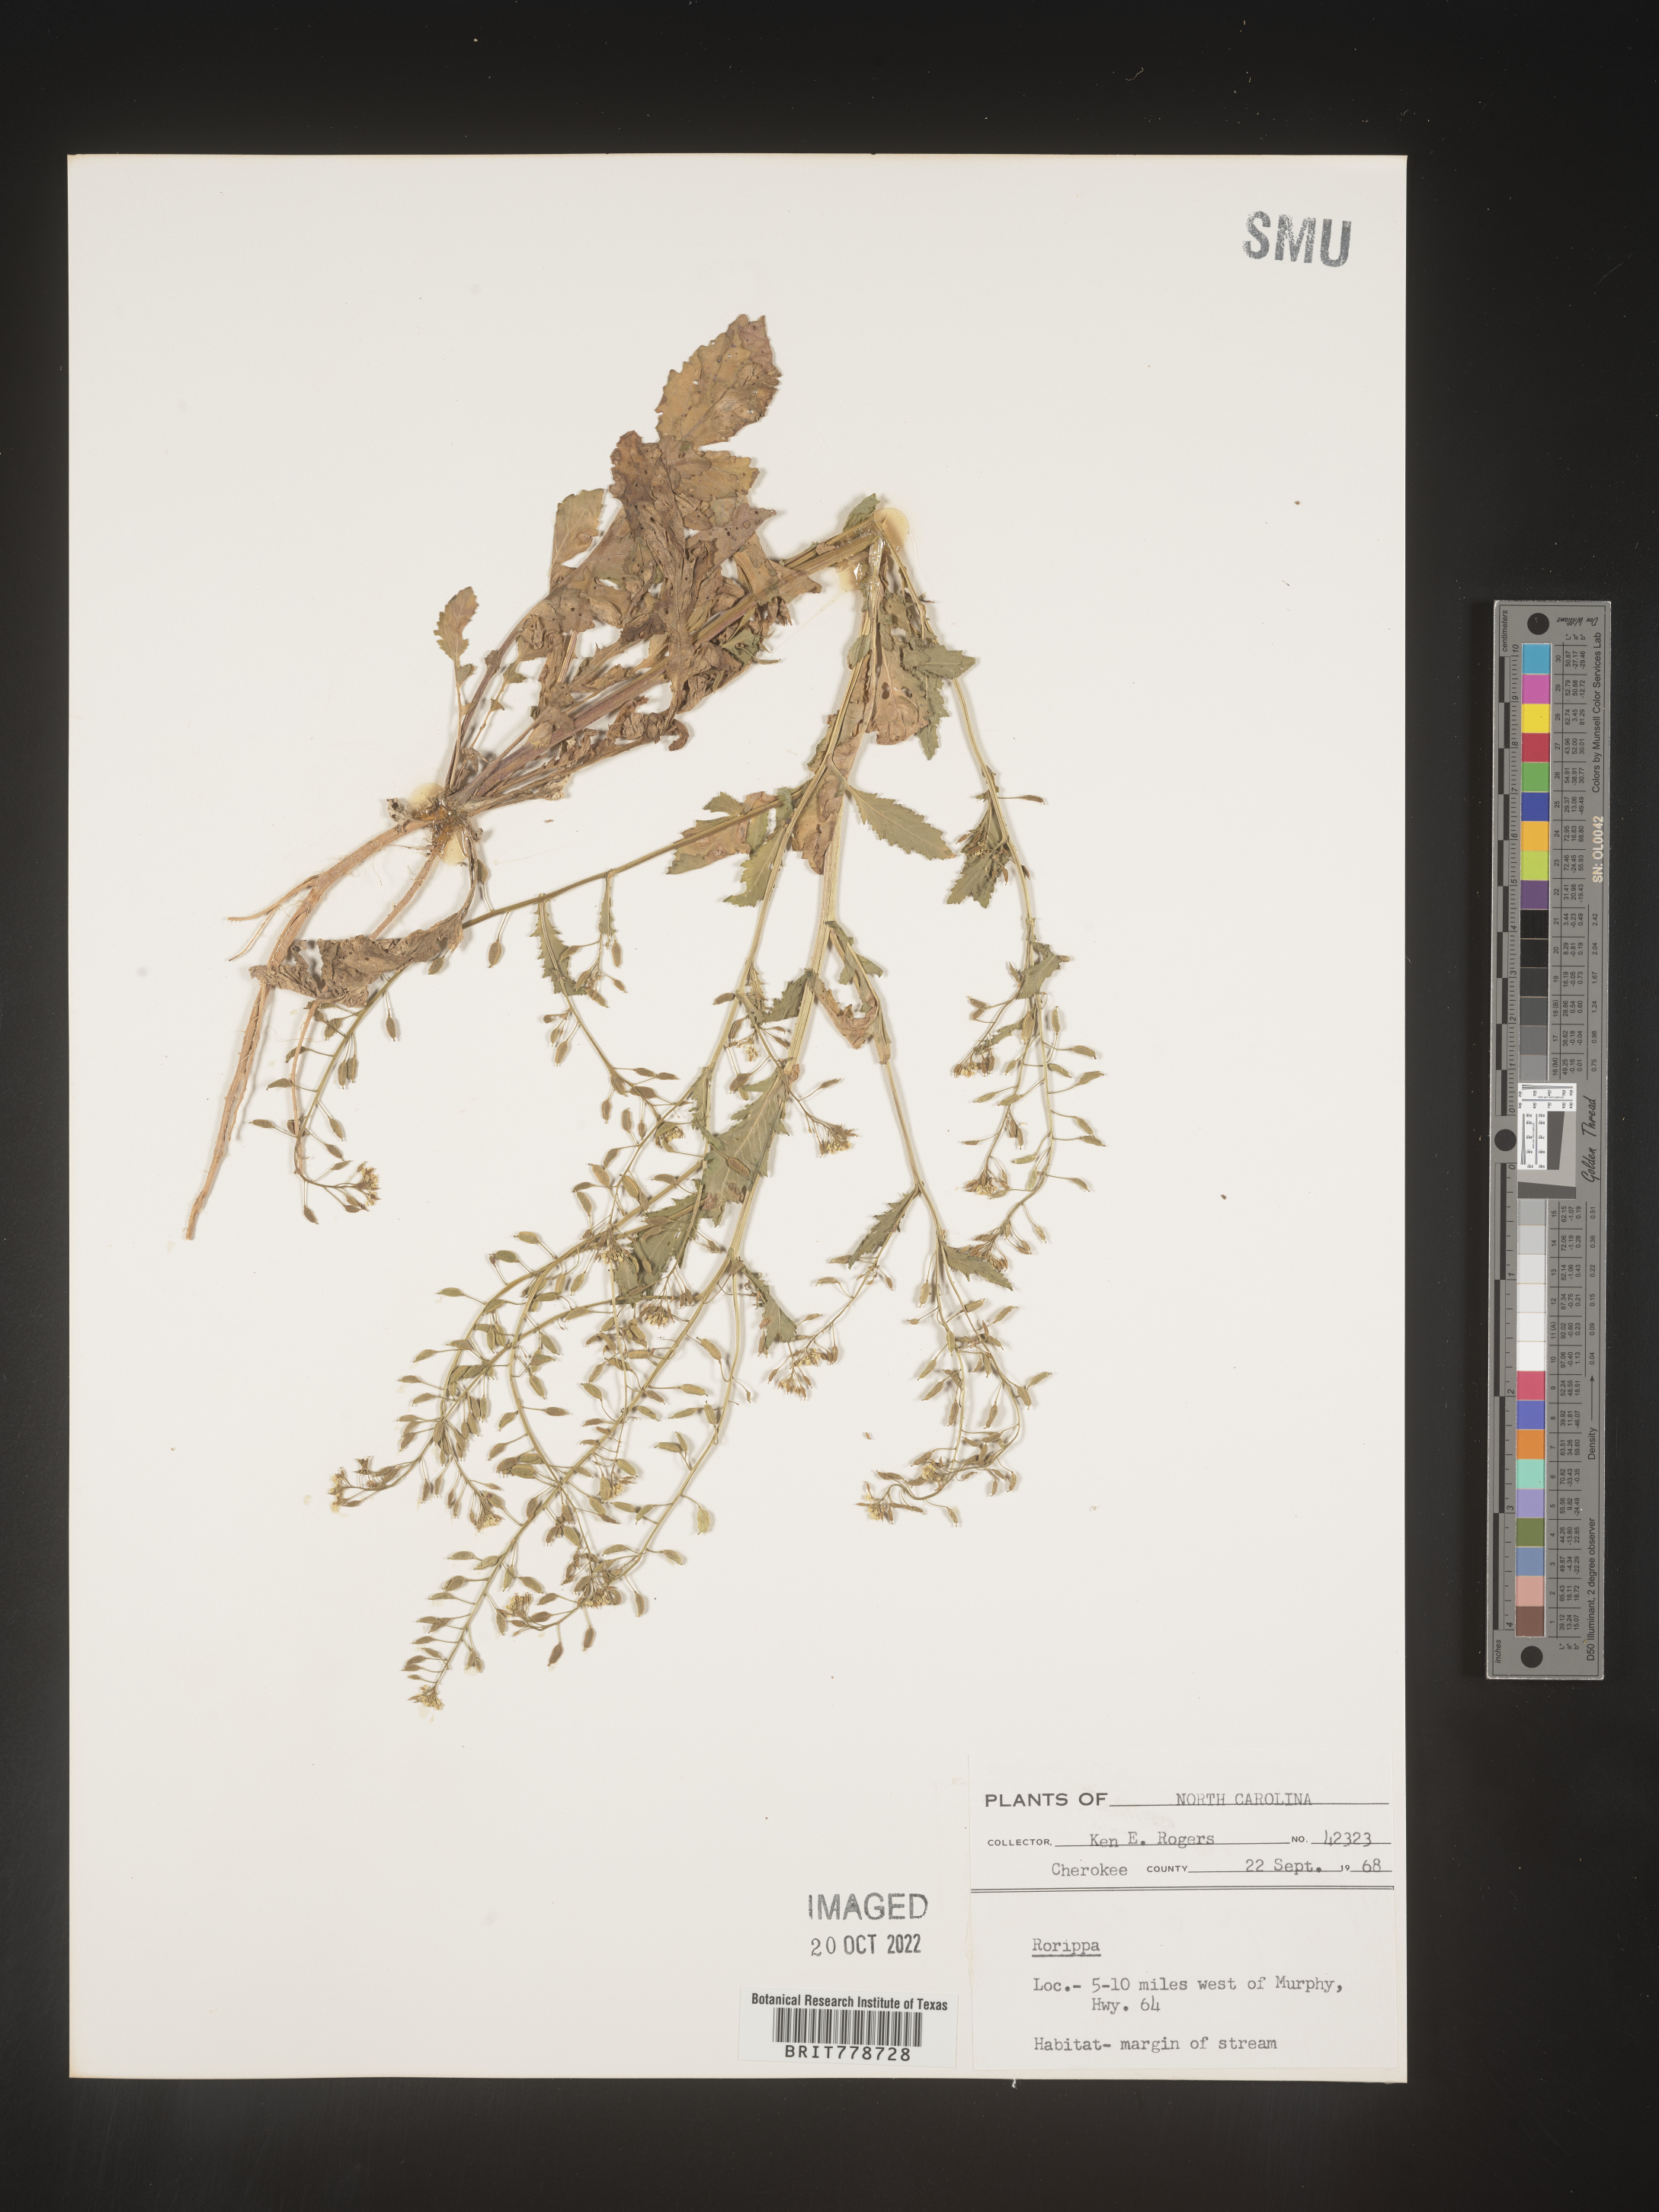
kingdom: Plantae
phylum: Tracheophyta
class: Magnoliopsida
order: Brassicales
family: Brassicaceae
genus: Rorippa
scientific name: Rorippa
